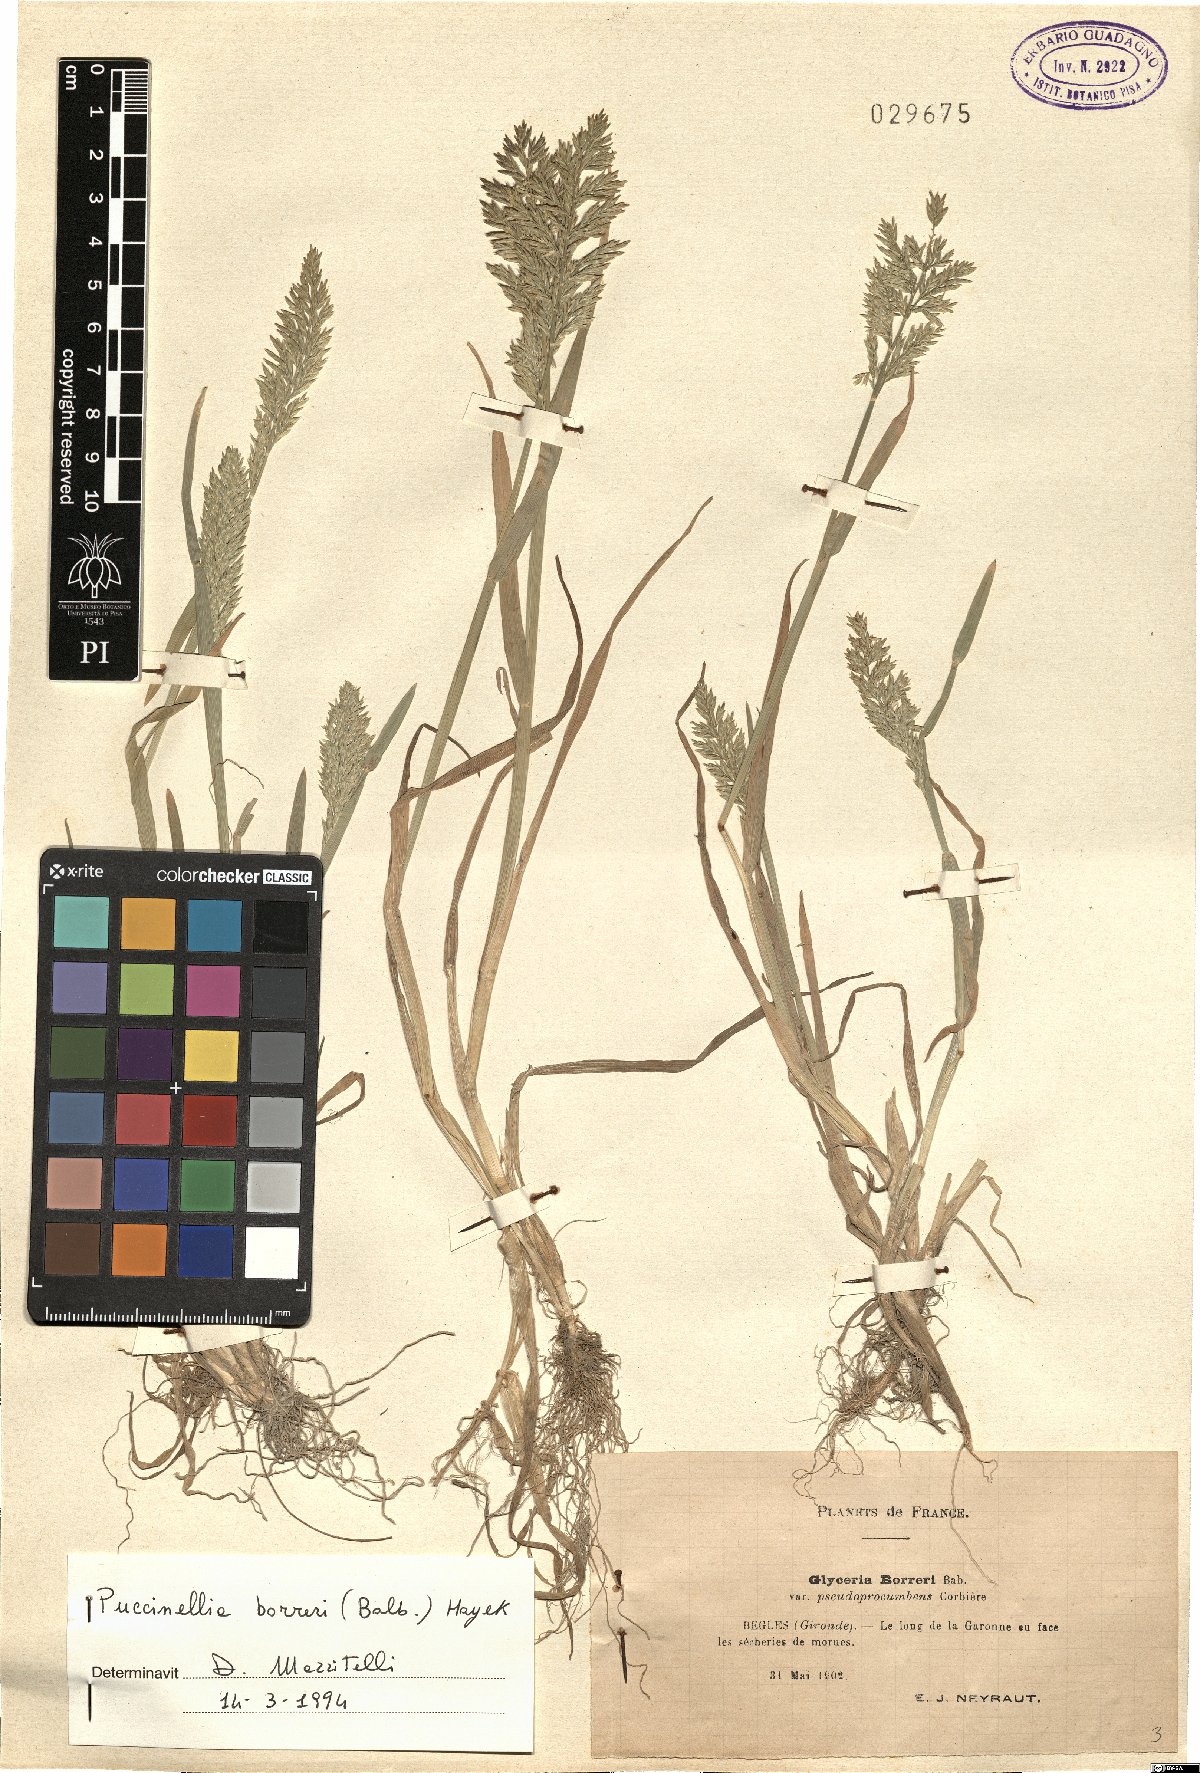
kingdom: Plantae
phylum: Tracheophyta
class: Liliopsida
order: Poales
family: Poaceae
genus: Puccinellia
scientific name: Puccinellia fasciculata
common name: Borrer's saltmarsh-grass
